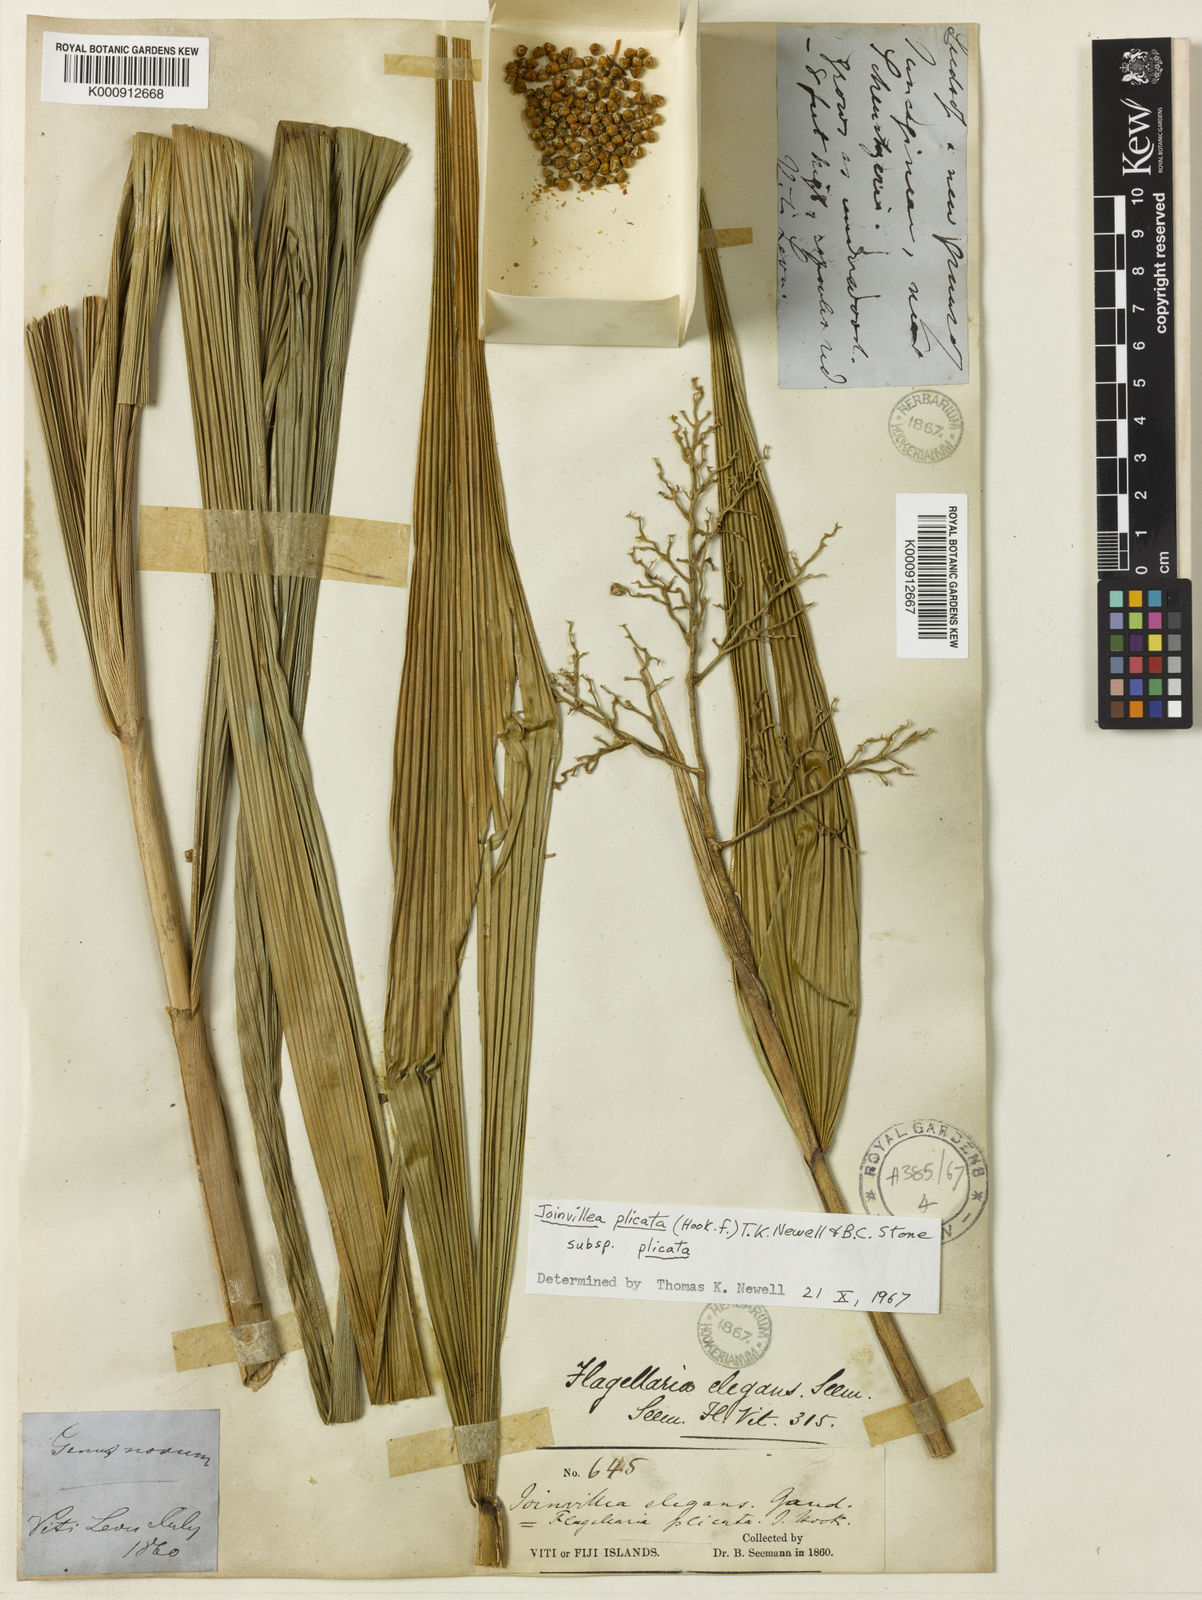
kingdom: Plantae
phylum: Tracheophyta
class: Liliopsida
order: Poales
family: Joinvilleaceae
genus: Joinvillea
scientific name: Joinvillea plicata
